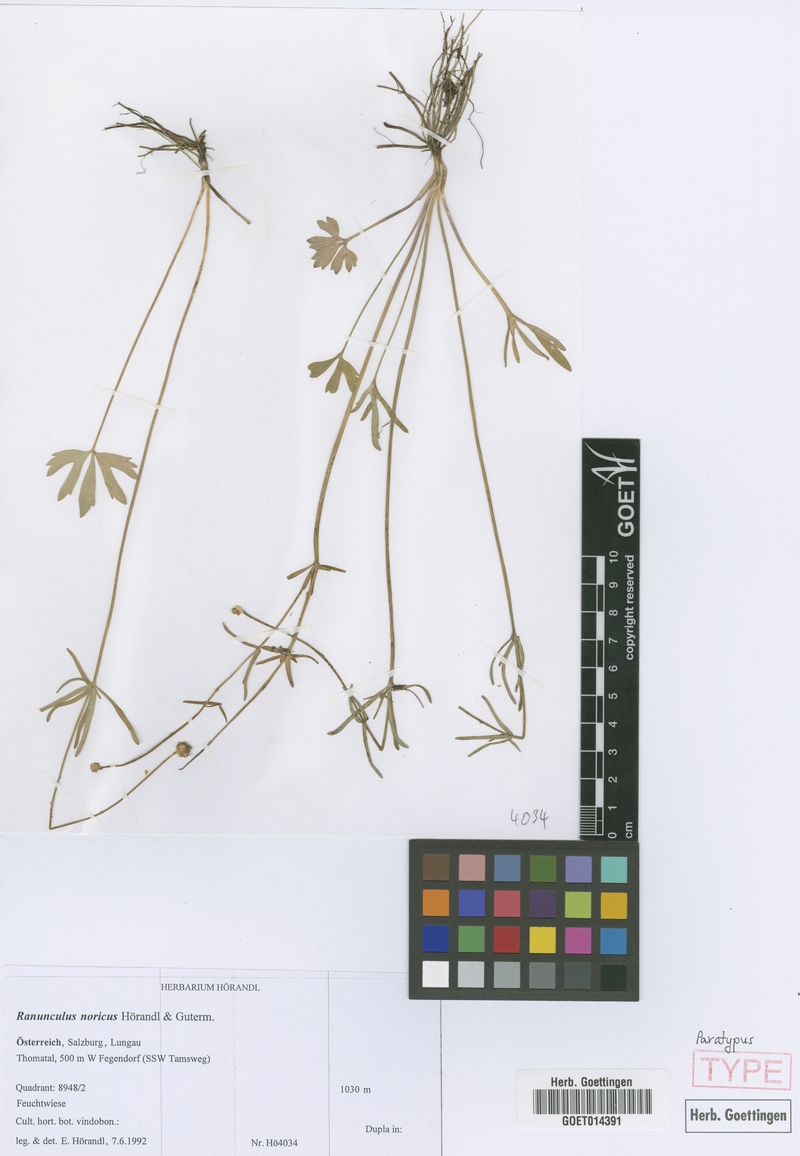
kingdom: Plantae
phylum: Tracheophyta
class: Magnoliopsida
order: Ranunculales
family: Ranunculaceae
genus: Ranunculus
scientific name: Ranunculus noricus
